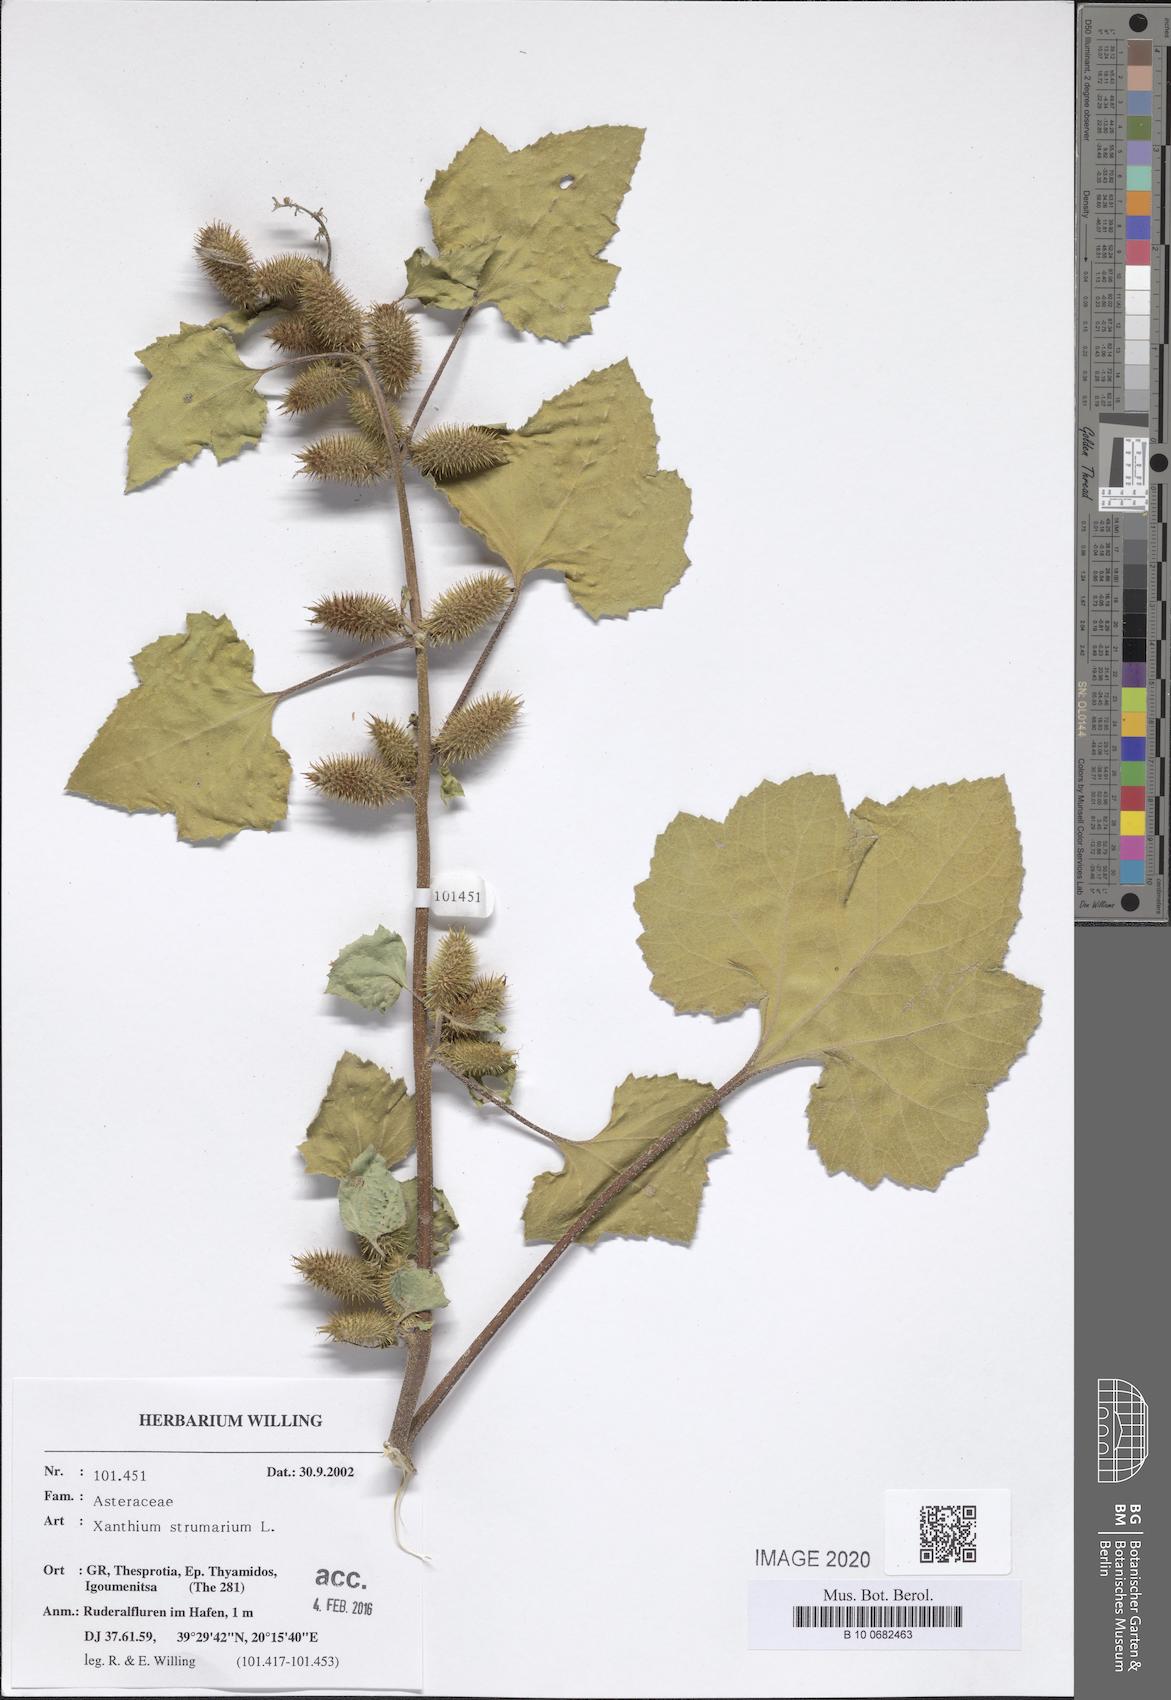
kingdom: Plantae
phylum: Tracheophyta
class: Magnoliopsida
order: Asterales
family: Asteraceae
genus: Xanthium
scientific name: Xanthium strumarium
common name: Rough cocklebur
